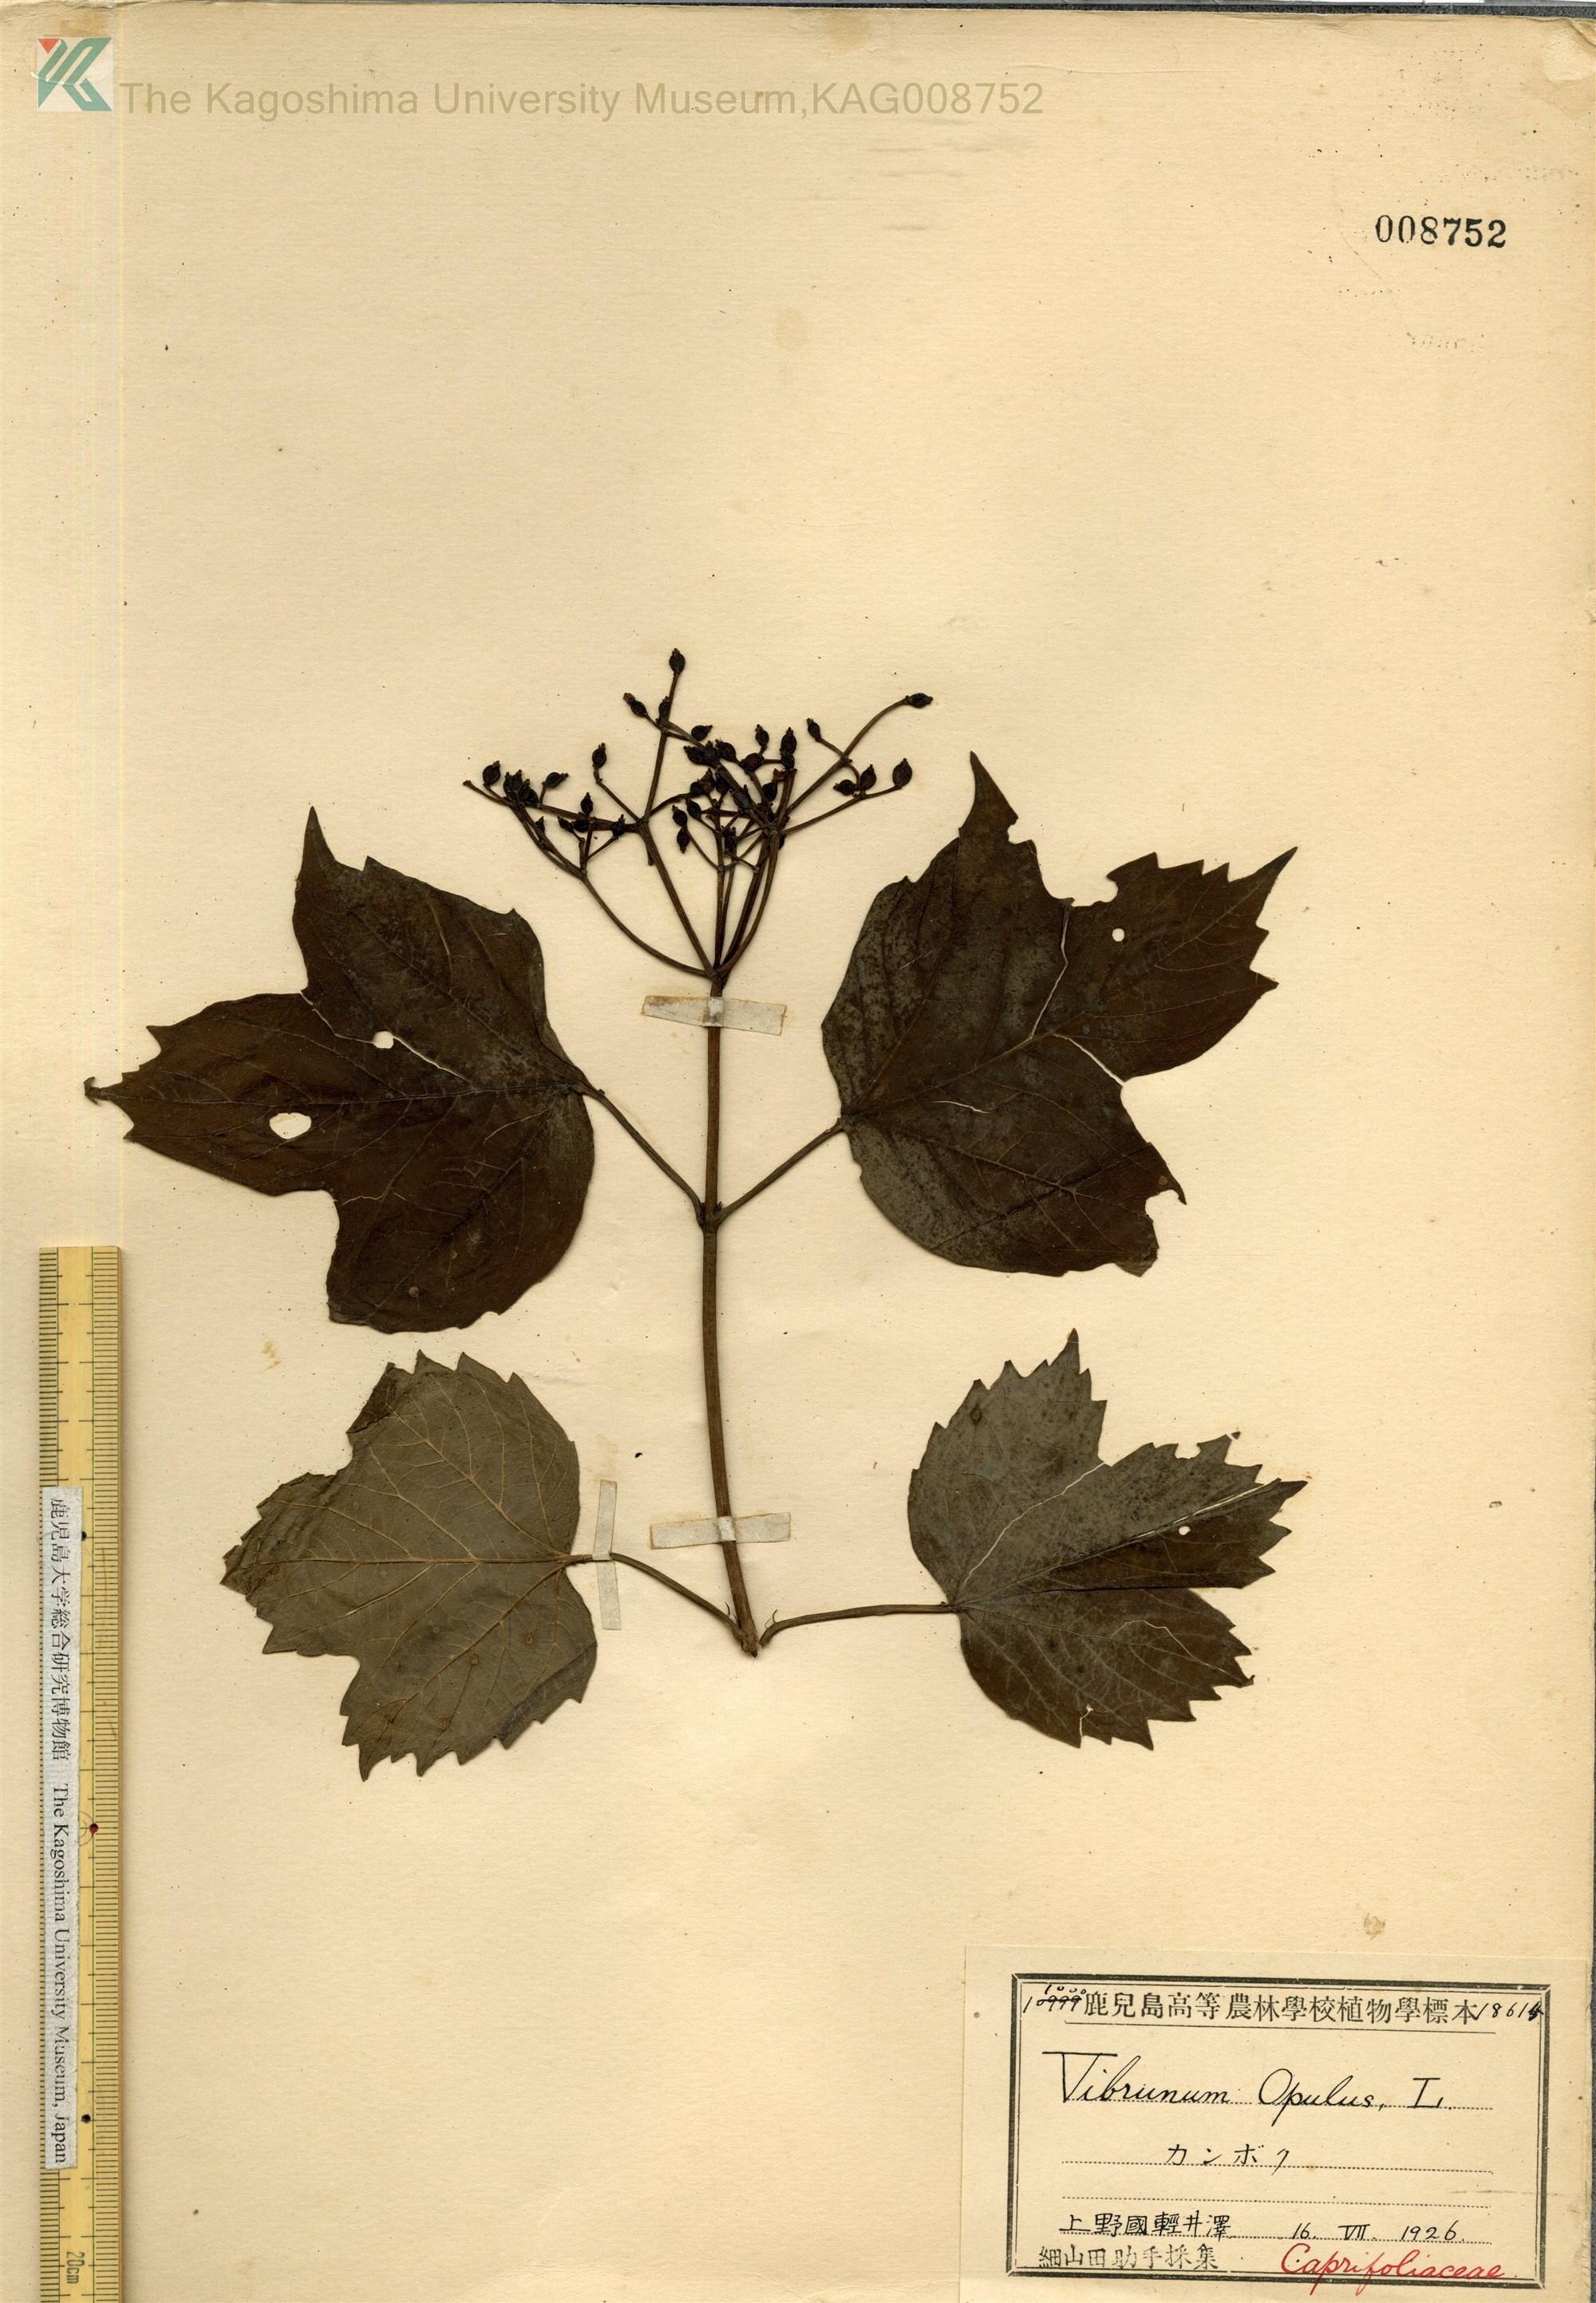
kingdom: Plantae
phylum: Tracheophyta
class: Magnoliopsida
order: Dipsacales
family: Viburnaceae
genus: Viburnum
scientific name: Viburnum opulus
